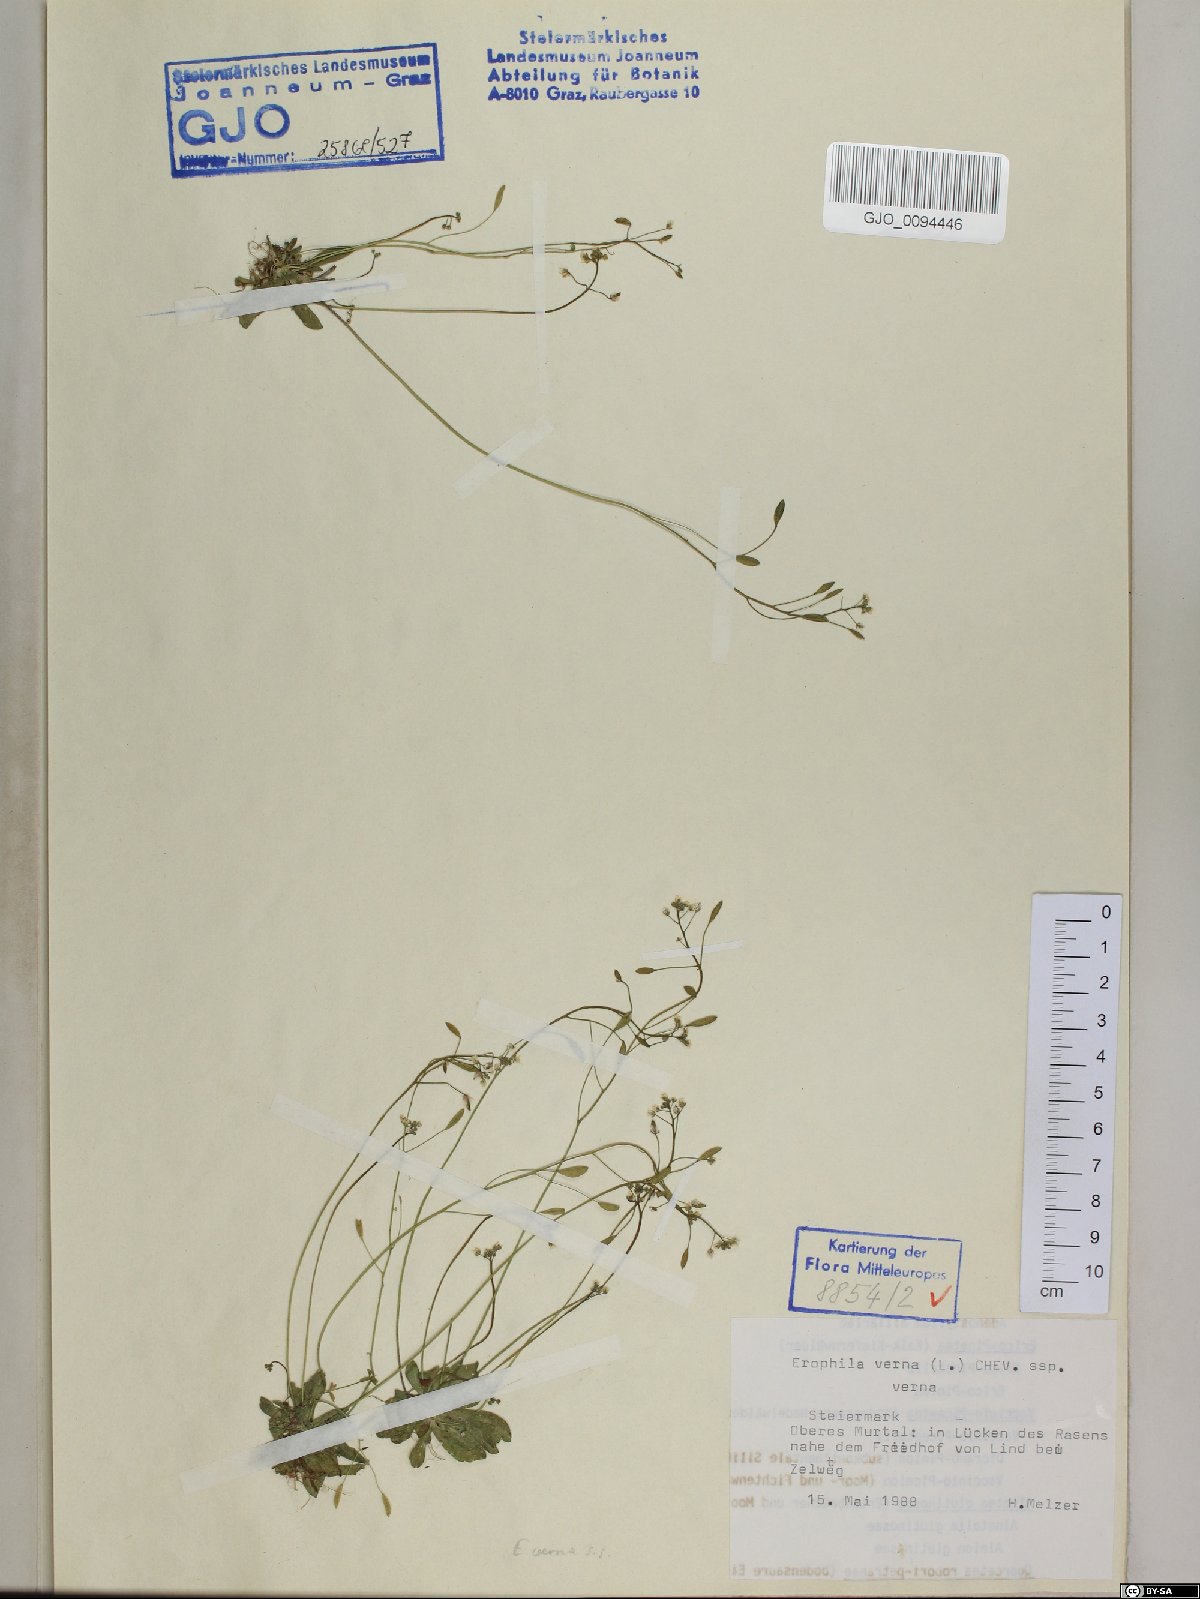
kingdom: Plantae
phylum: Tracheophyta
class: Magnoliopsida
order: Brassicales
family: Brassicaceae
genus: Draba
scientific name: Draba verna
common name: Spring draba
